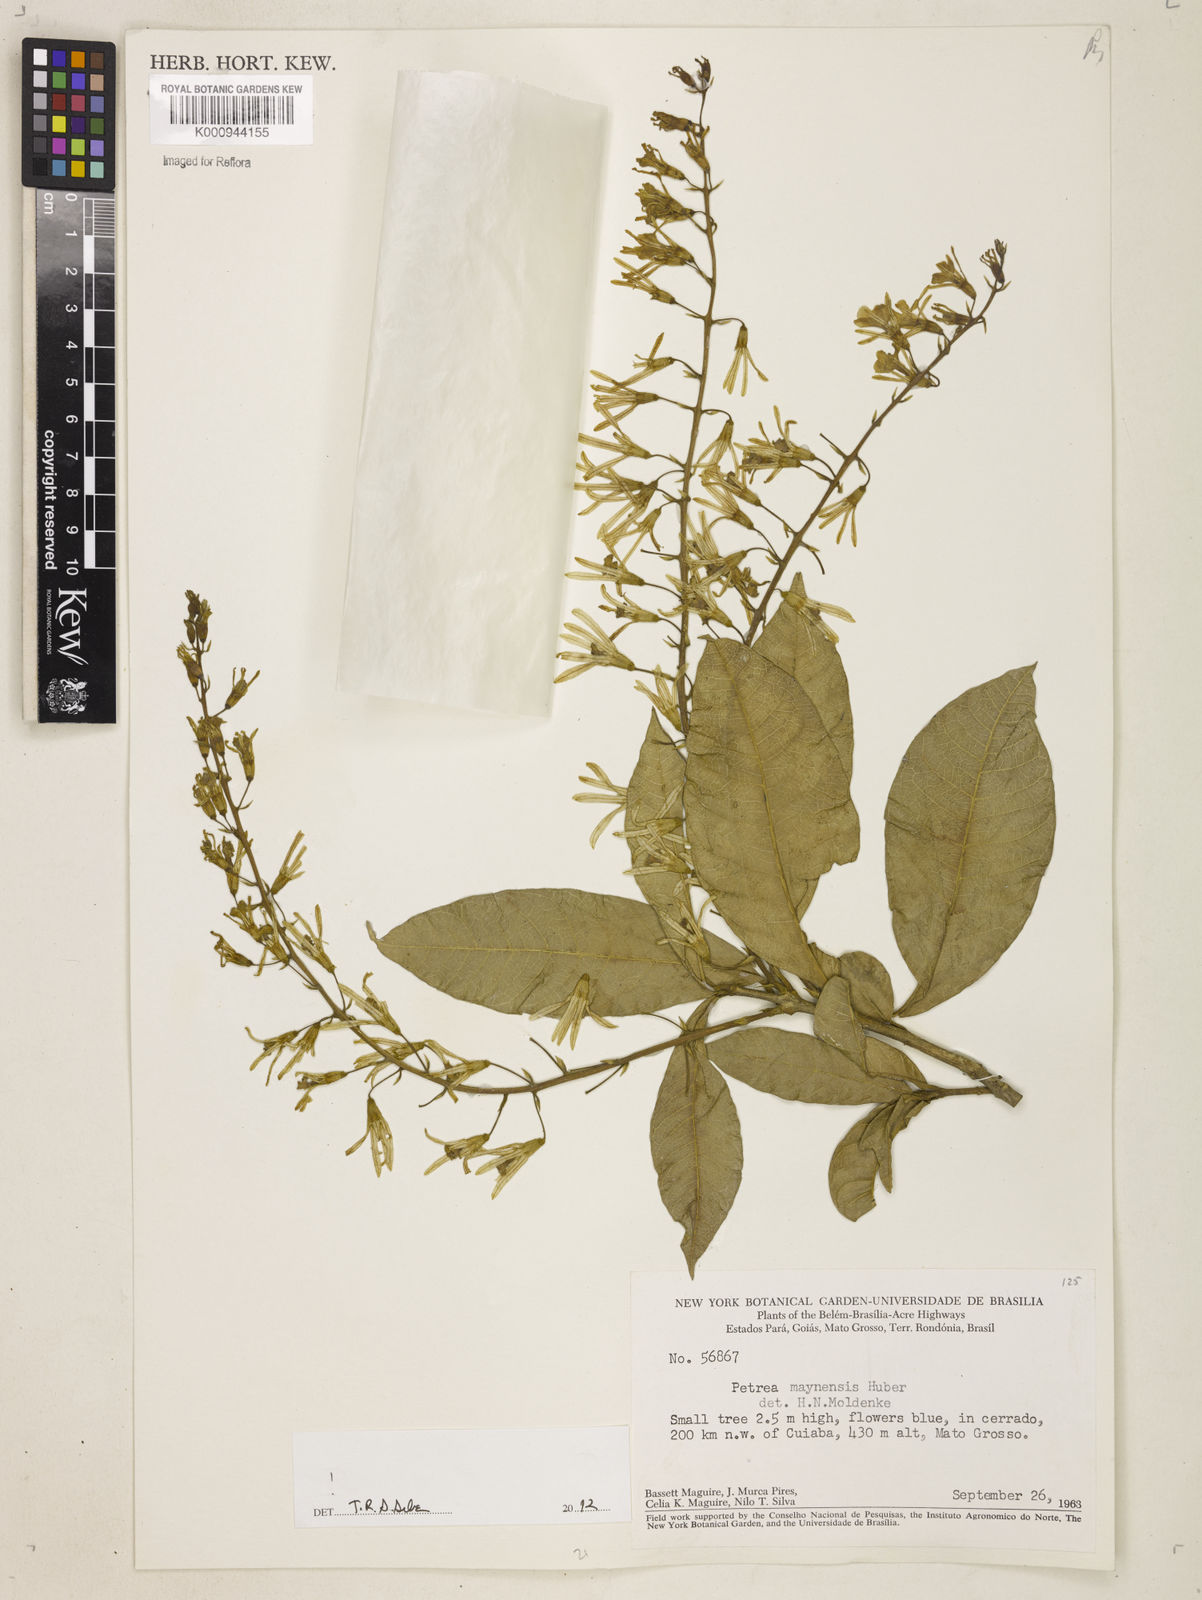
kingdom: Plantae
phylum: Tracheophyta
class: Magnoliopsida
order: Lamiales
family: Verbenaceae
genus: Petrea
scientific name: Petrea maynensis
